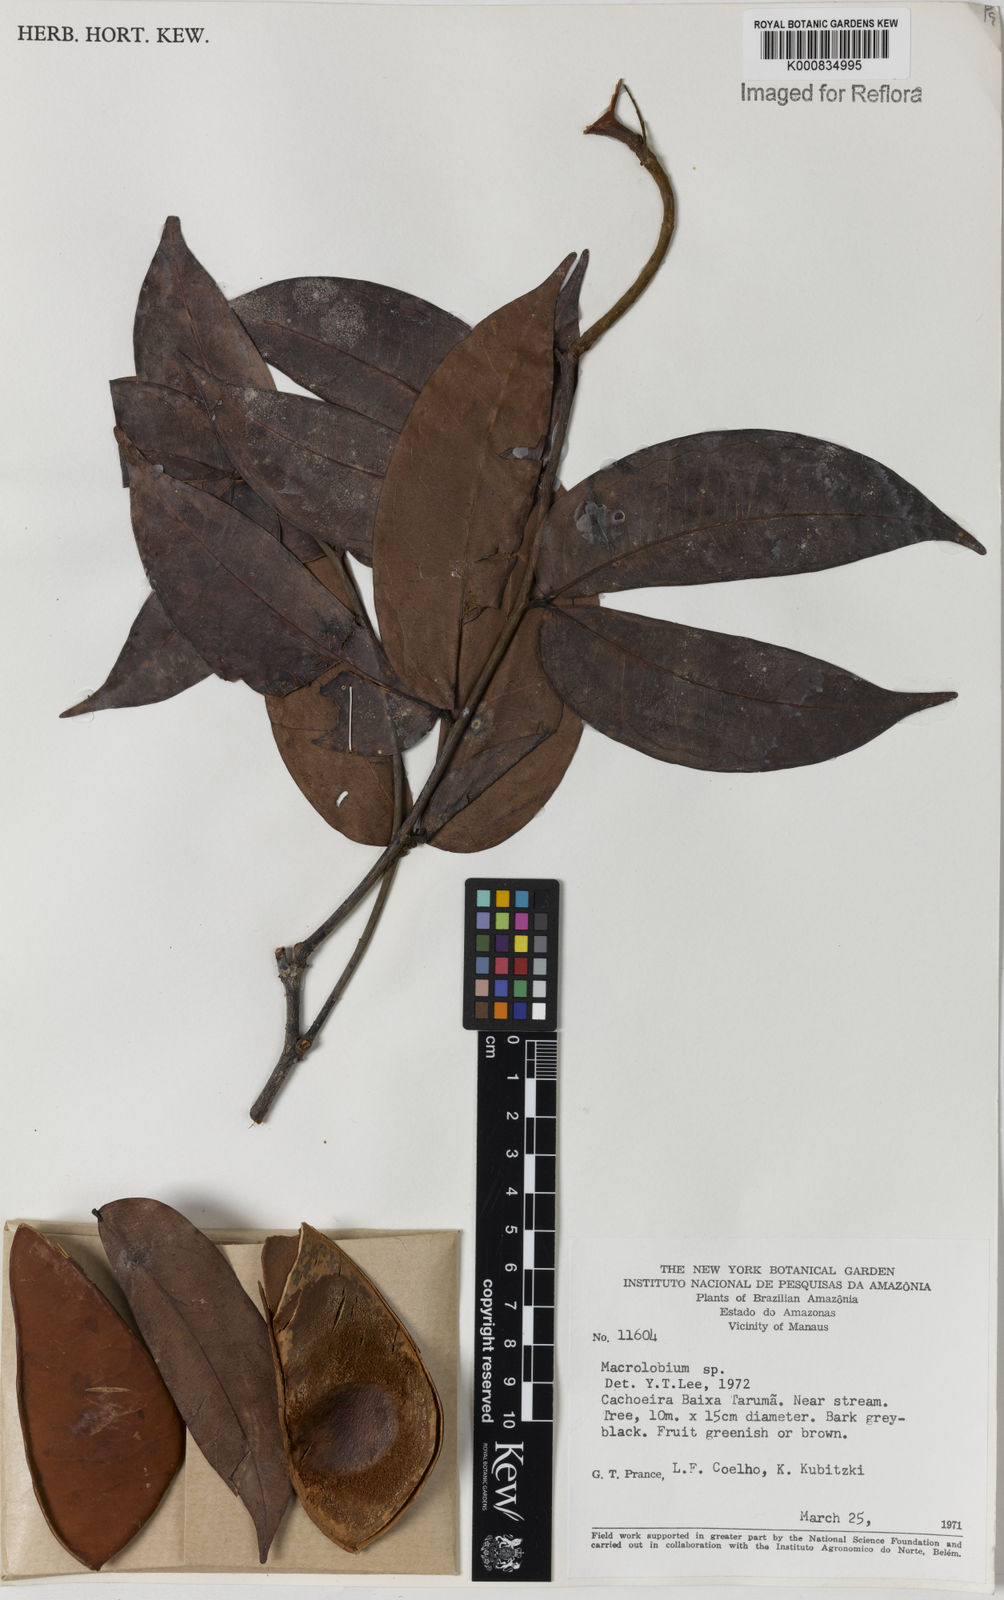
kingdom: Plantae
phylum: Tracheophyta
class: Magnoliopsida
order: Fabales
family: Fabaceae
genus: Macrolobium
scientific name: Macrolobium
